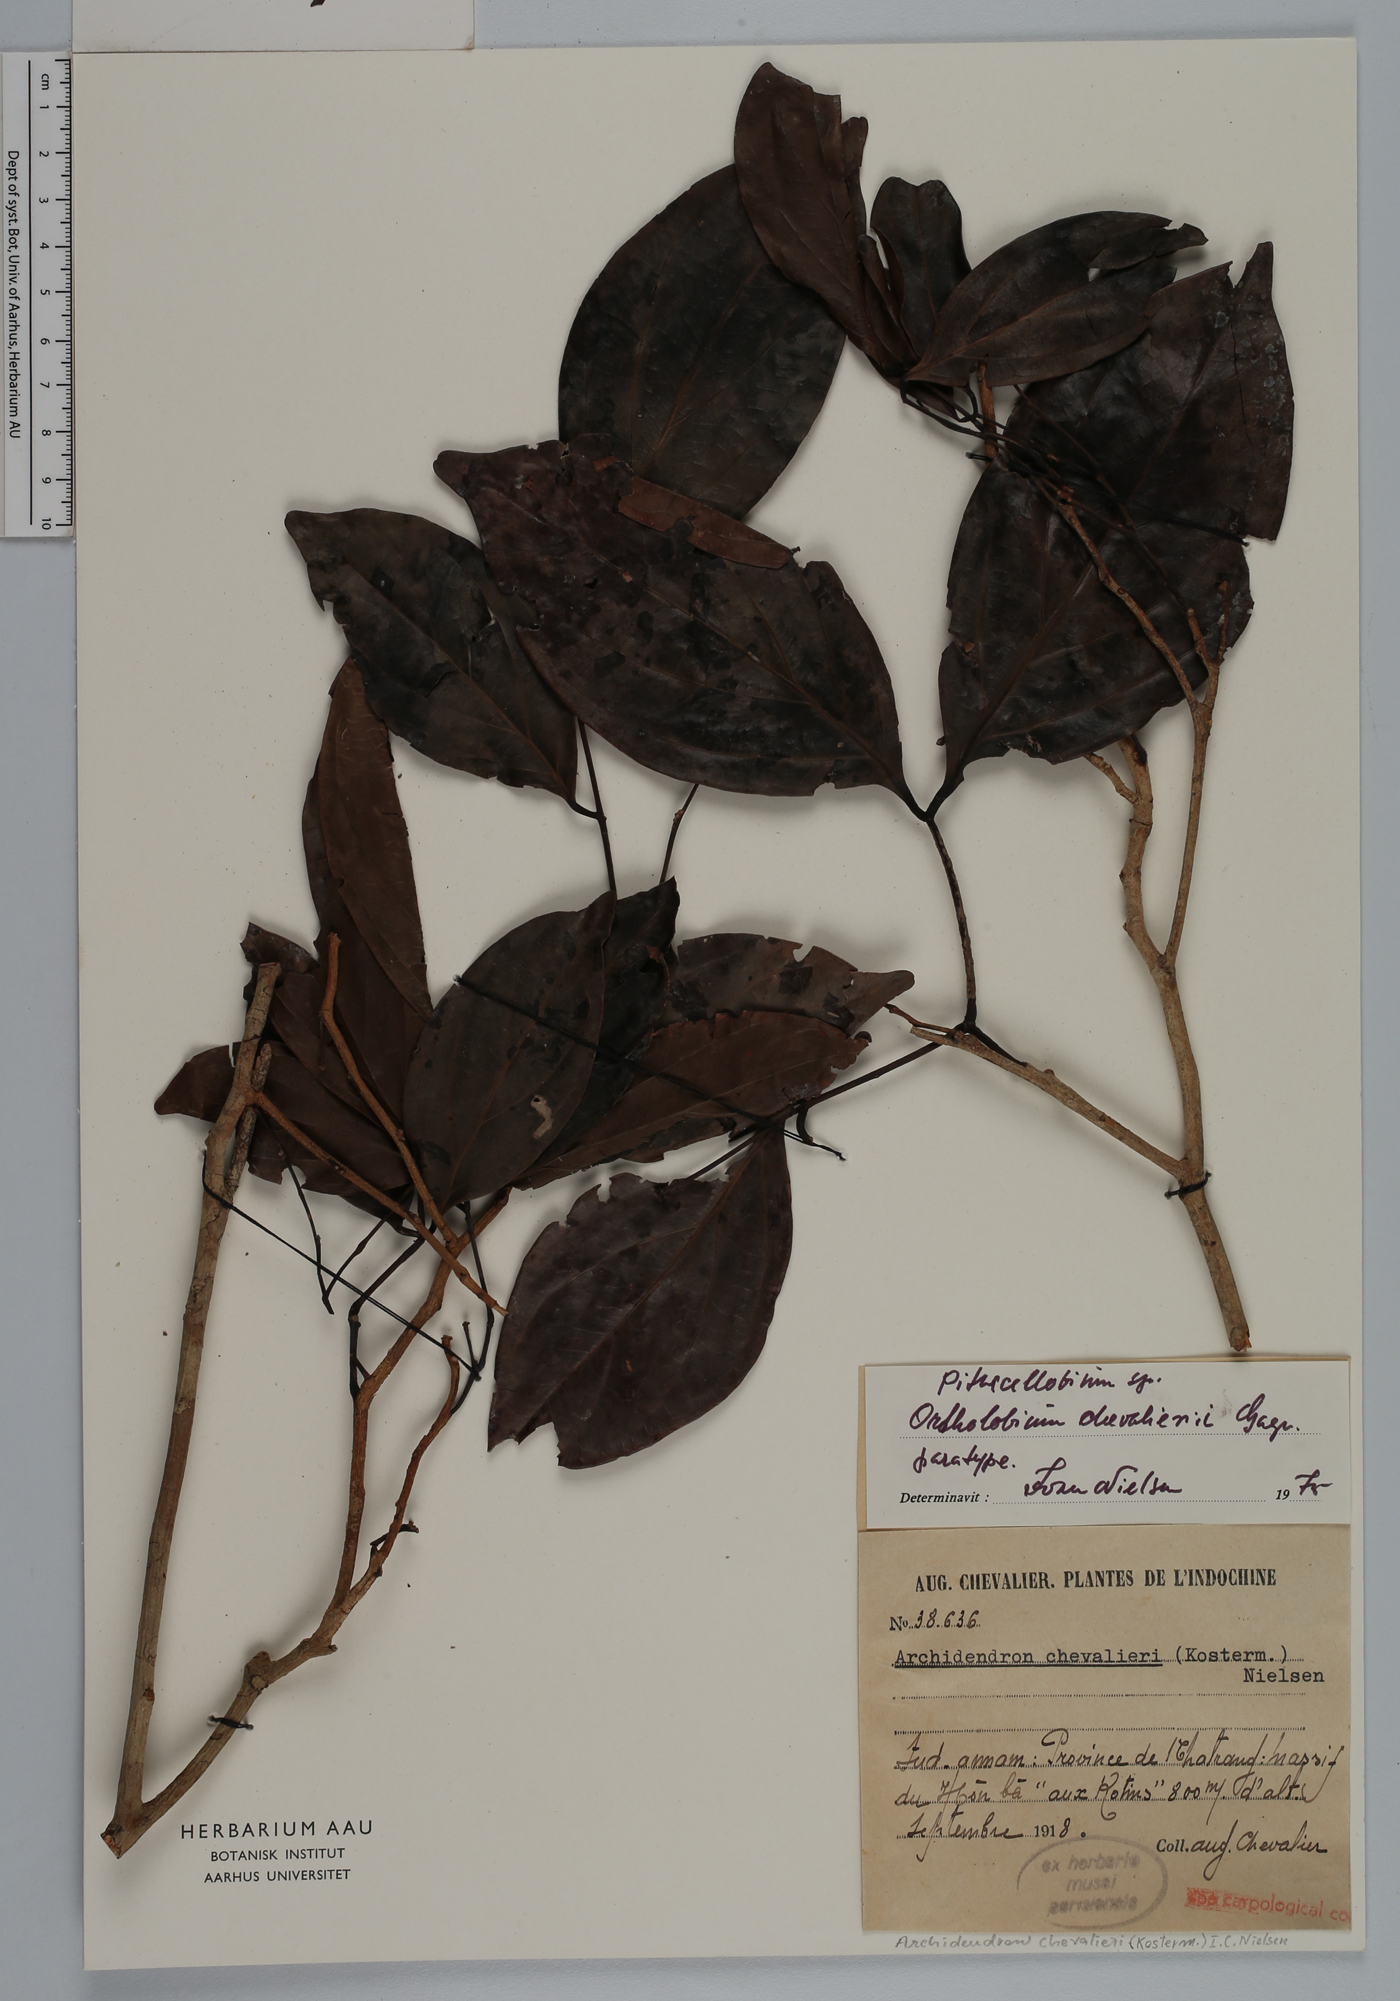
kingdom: Plantae
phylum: Tracheophyta
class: Magnoliopsida
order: Fabales
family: Fabaceae
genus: Archidendron
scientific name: Archidendron chevalieri
